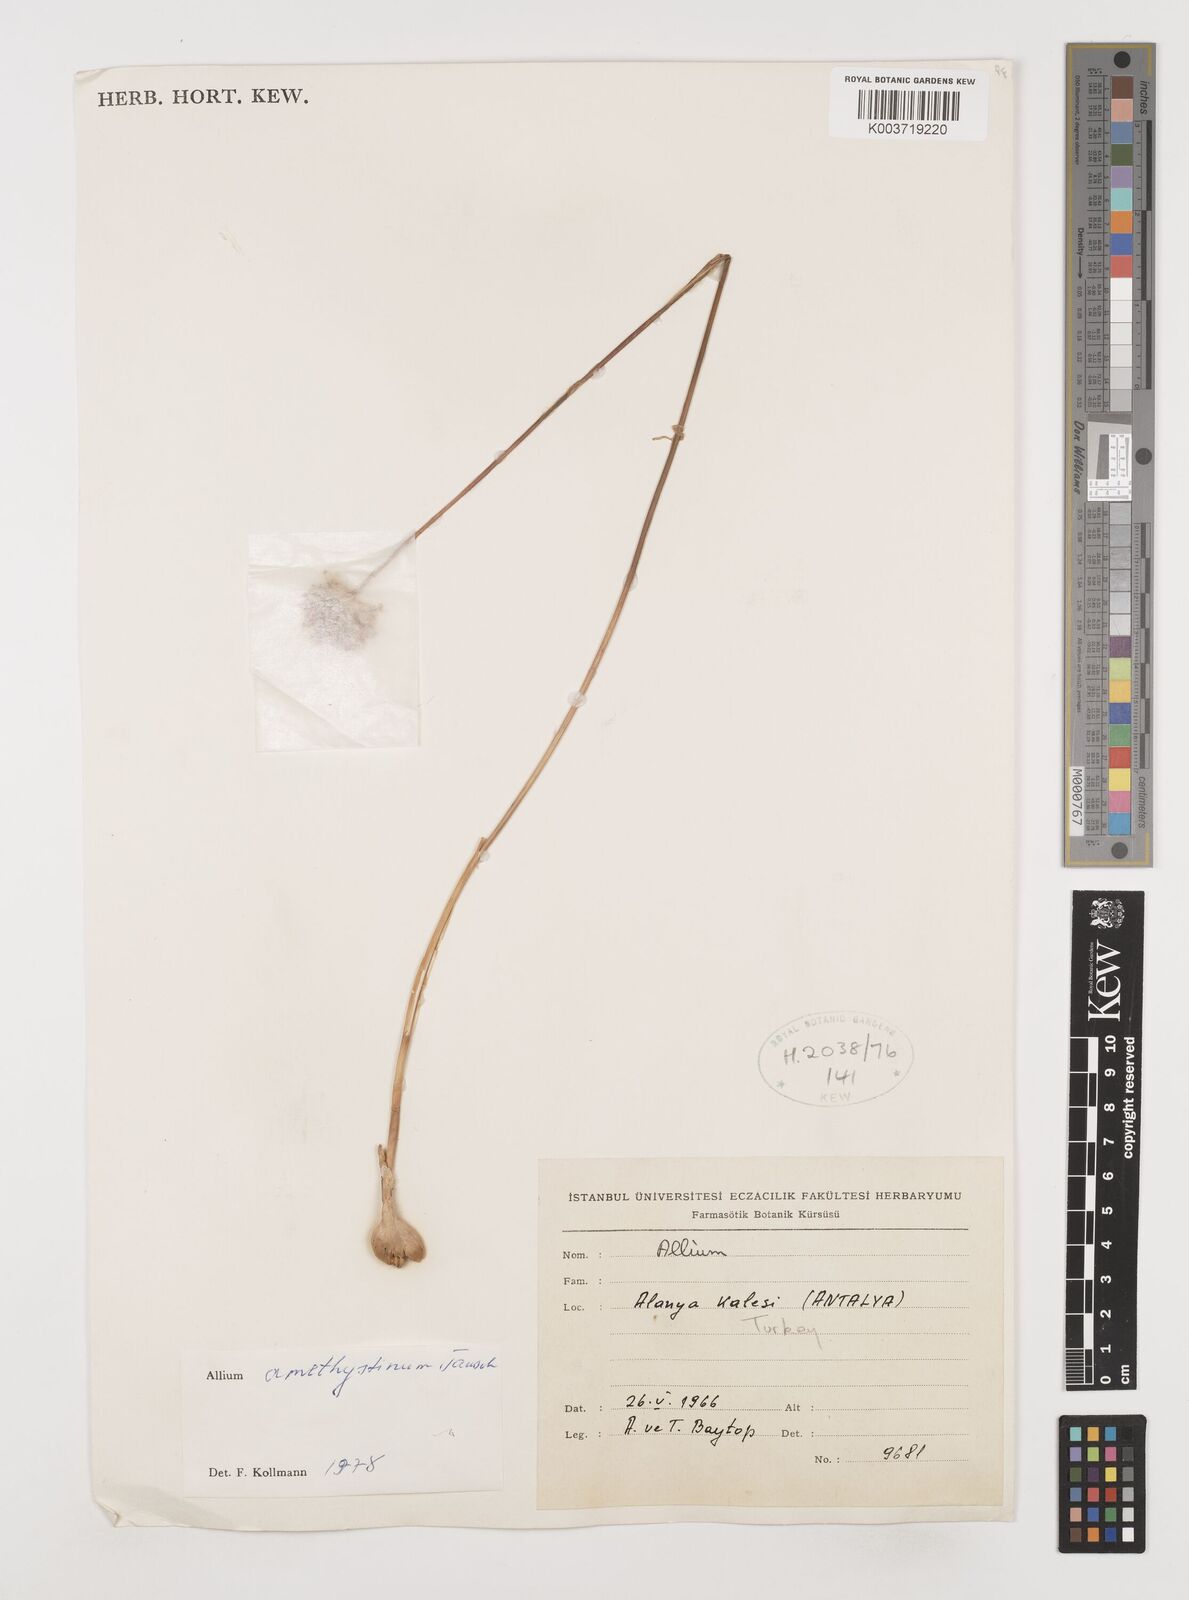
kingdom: Plantae
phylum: Tracheophyta
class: Liliopsida
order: Asparagales
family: Amaryllidaceae
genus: Allium
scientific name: Allium amethystinum
